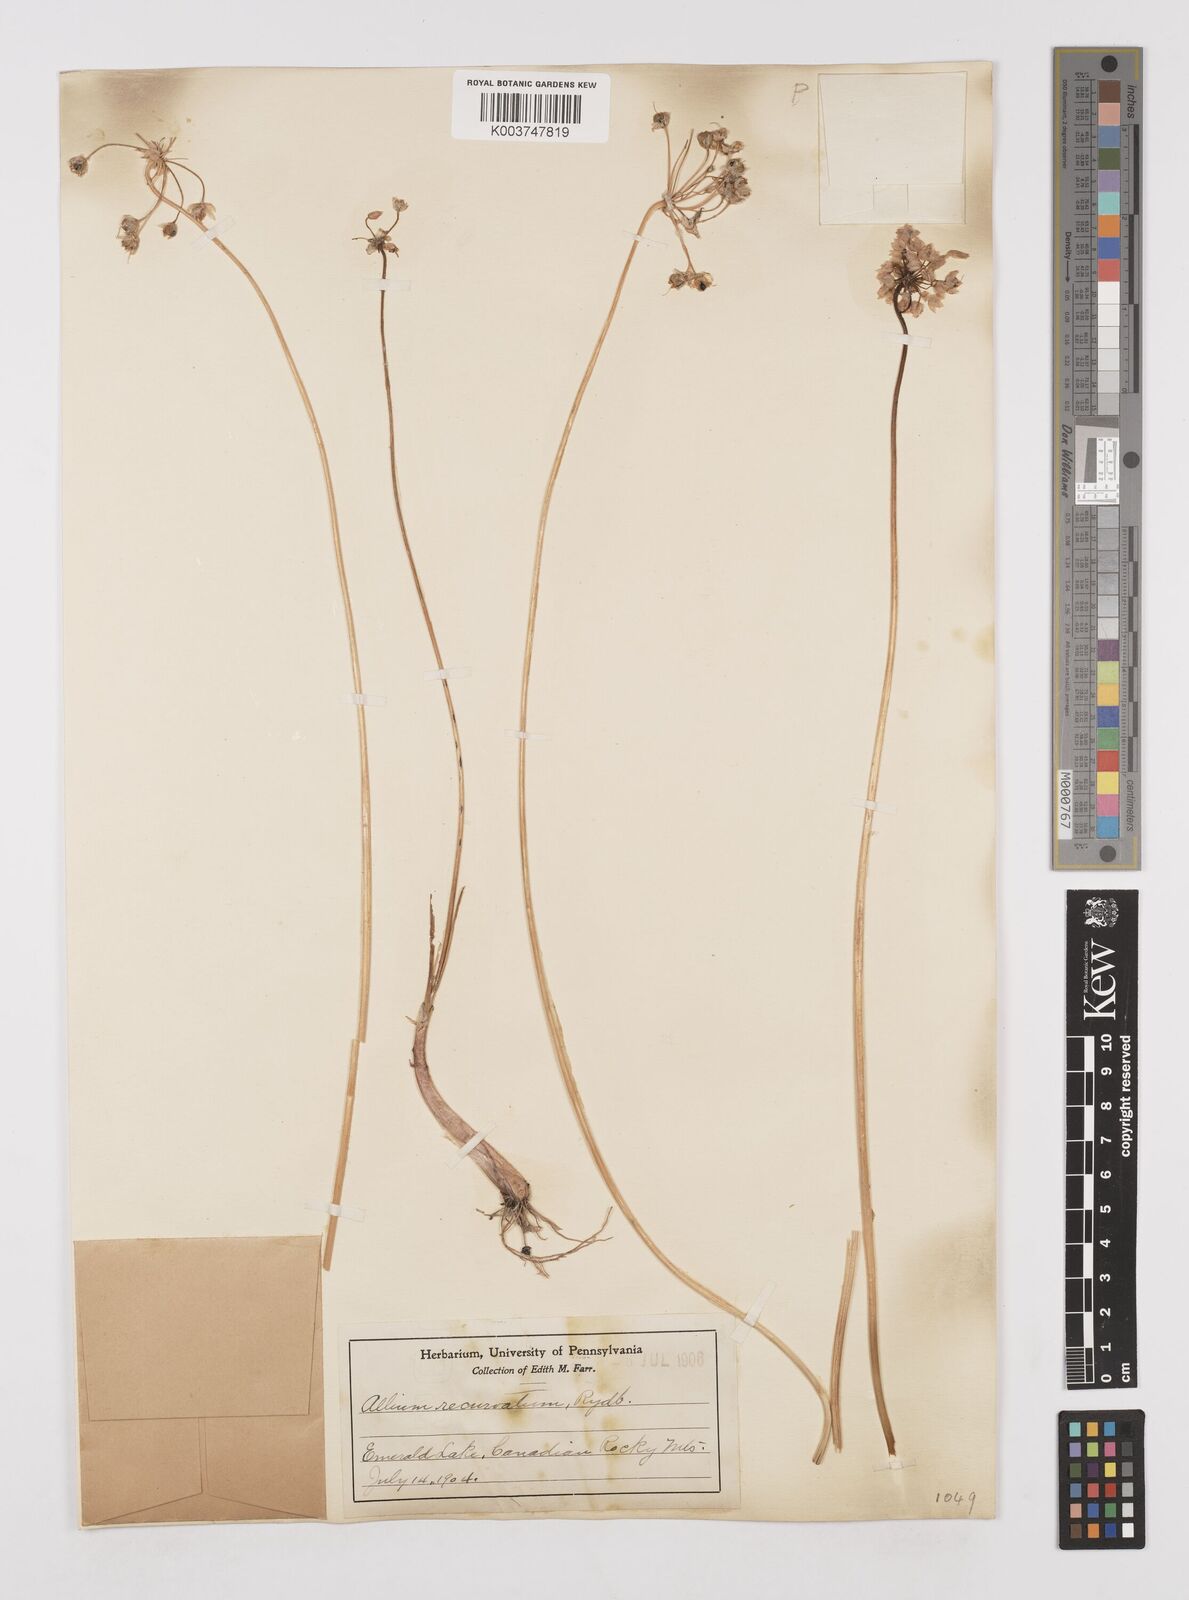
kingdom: Plantae
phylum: Tracheophyta
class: Liliopsida
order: Asparagales
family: Amaryllidaceae
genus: Allium
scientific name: Allium cernuum
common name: Nodding onion
